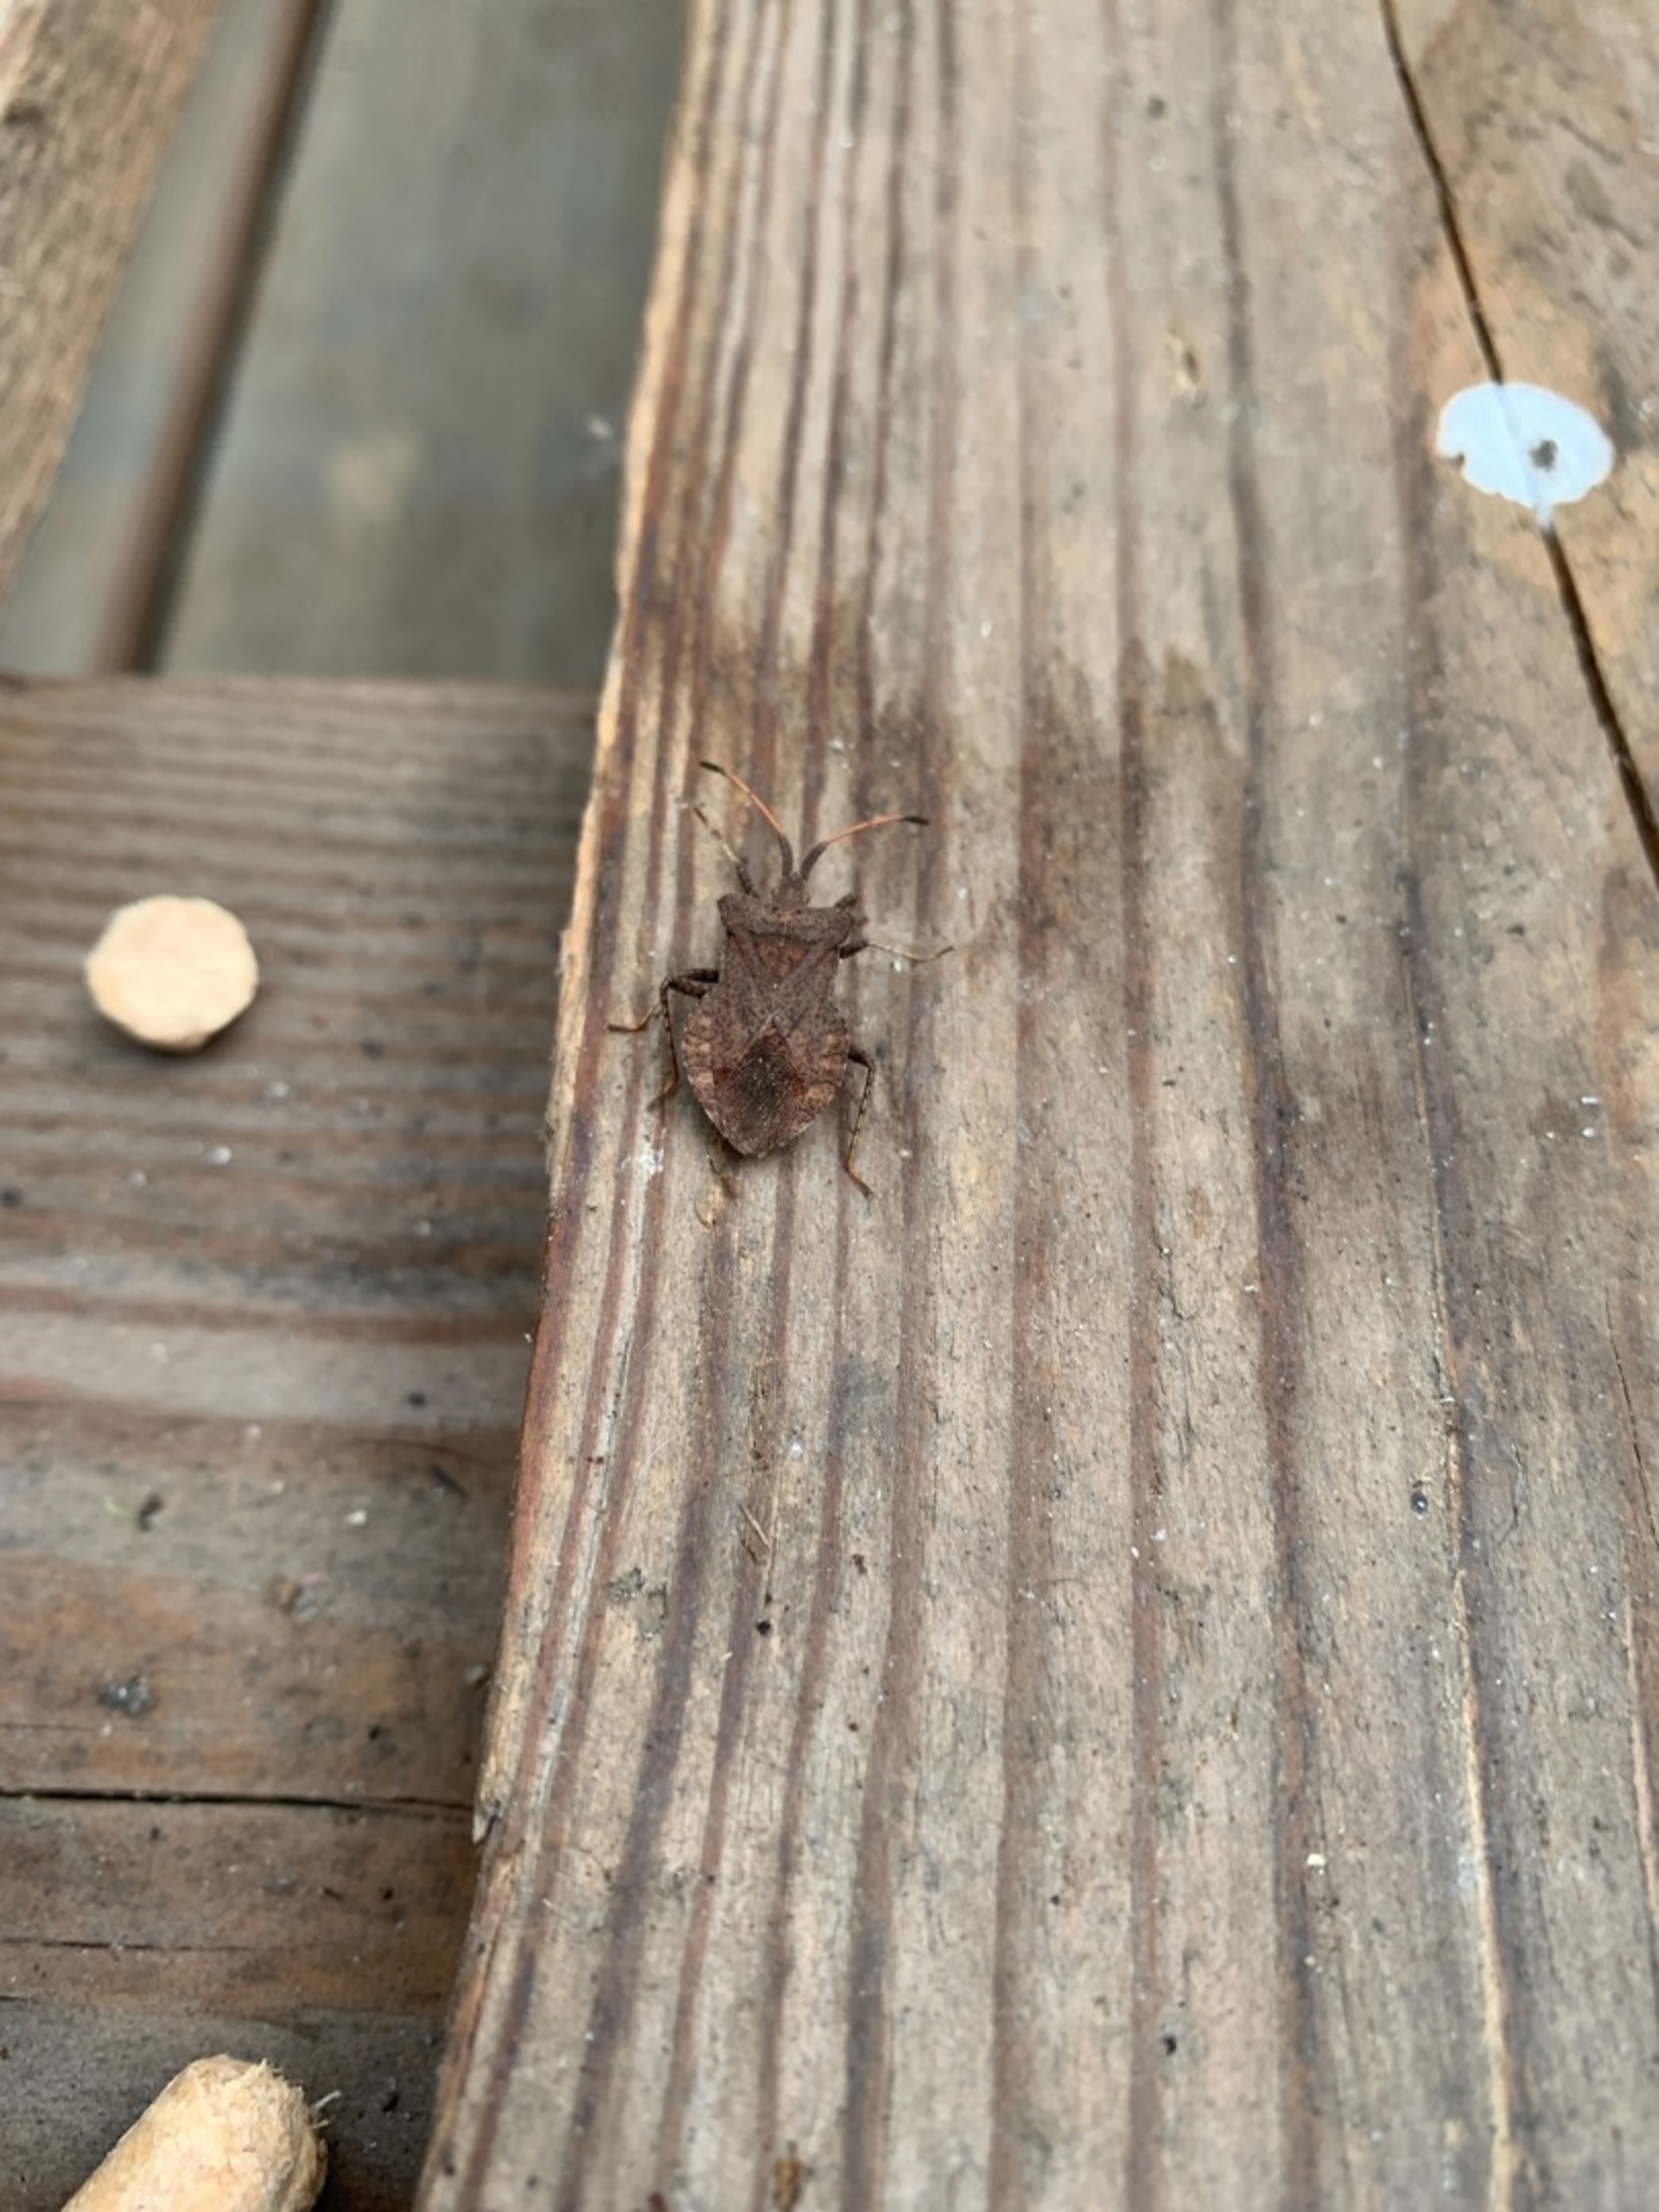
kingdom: Animalia
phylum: Arthropoda
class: Insecta
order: Hemiptera
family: Coreidae
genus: Coreus
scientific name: Coreus marginatus
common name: Skræppetæge
